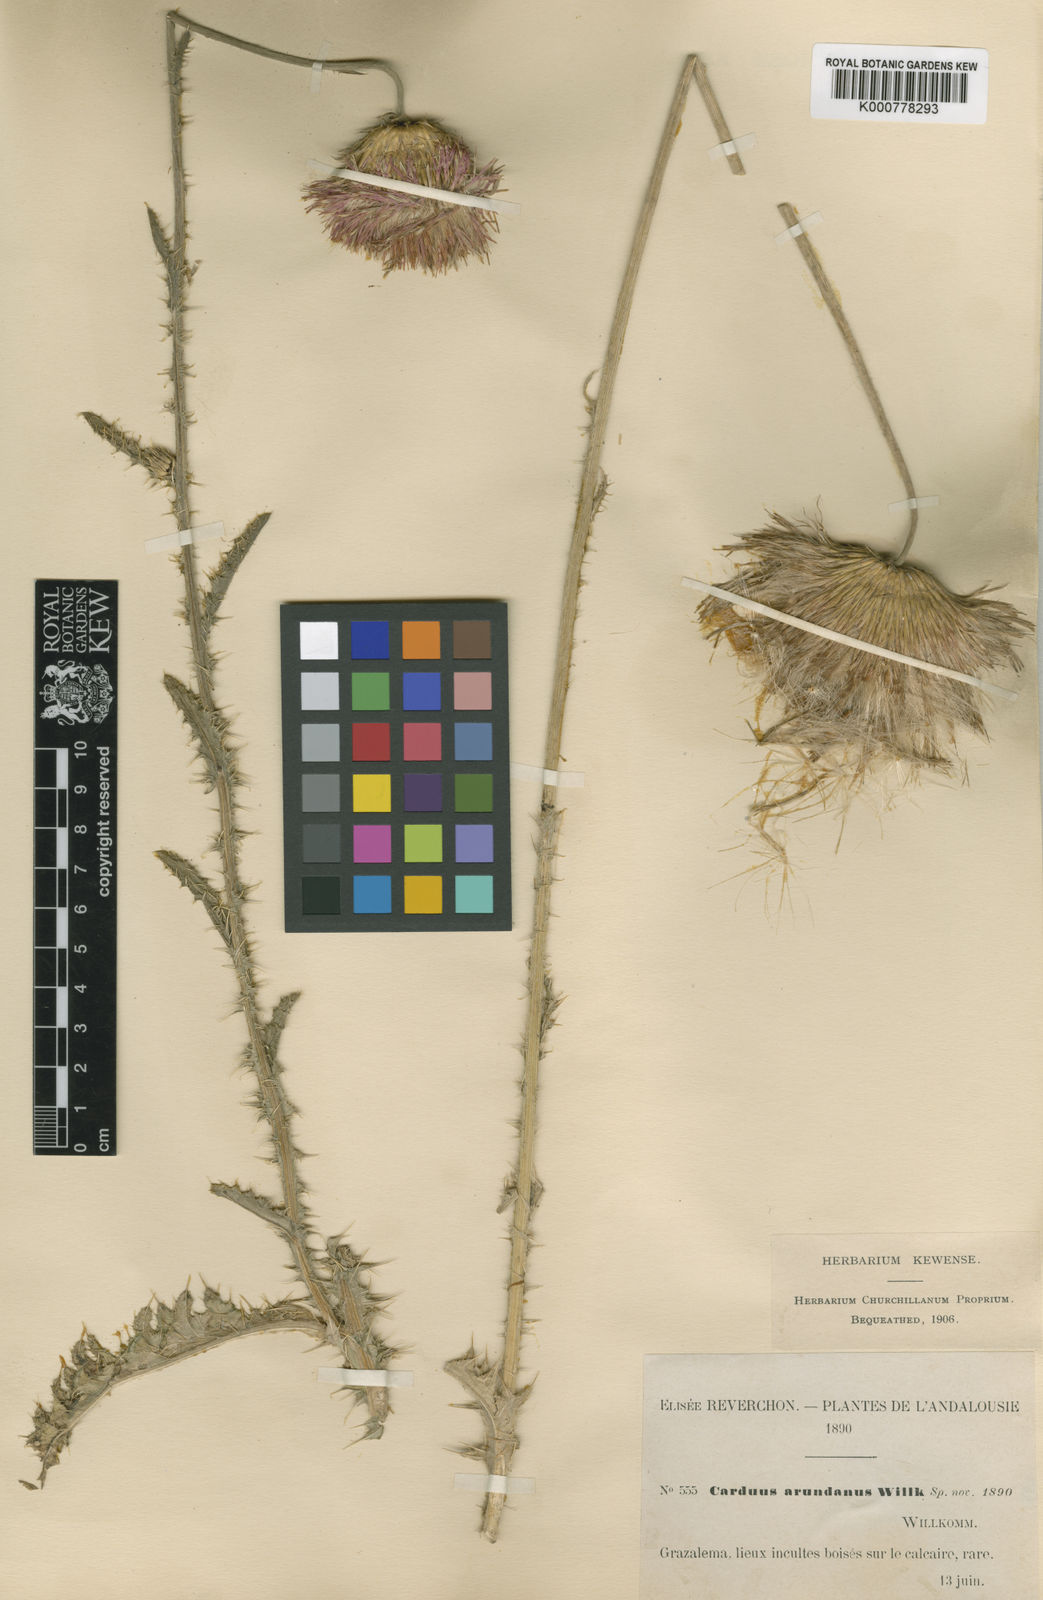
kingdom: Plantae
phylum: Tracheophyta
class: Magnoliopsida
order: Asterales
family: Asteraceae
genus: Tyrimnus
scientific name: Tyrimnus leucographus
